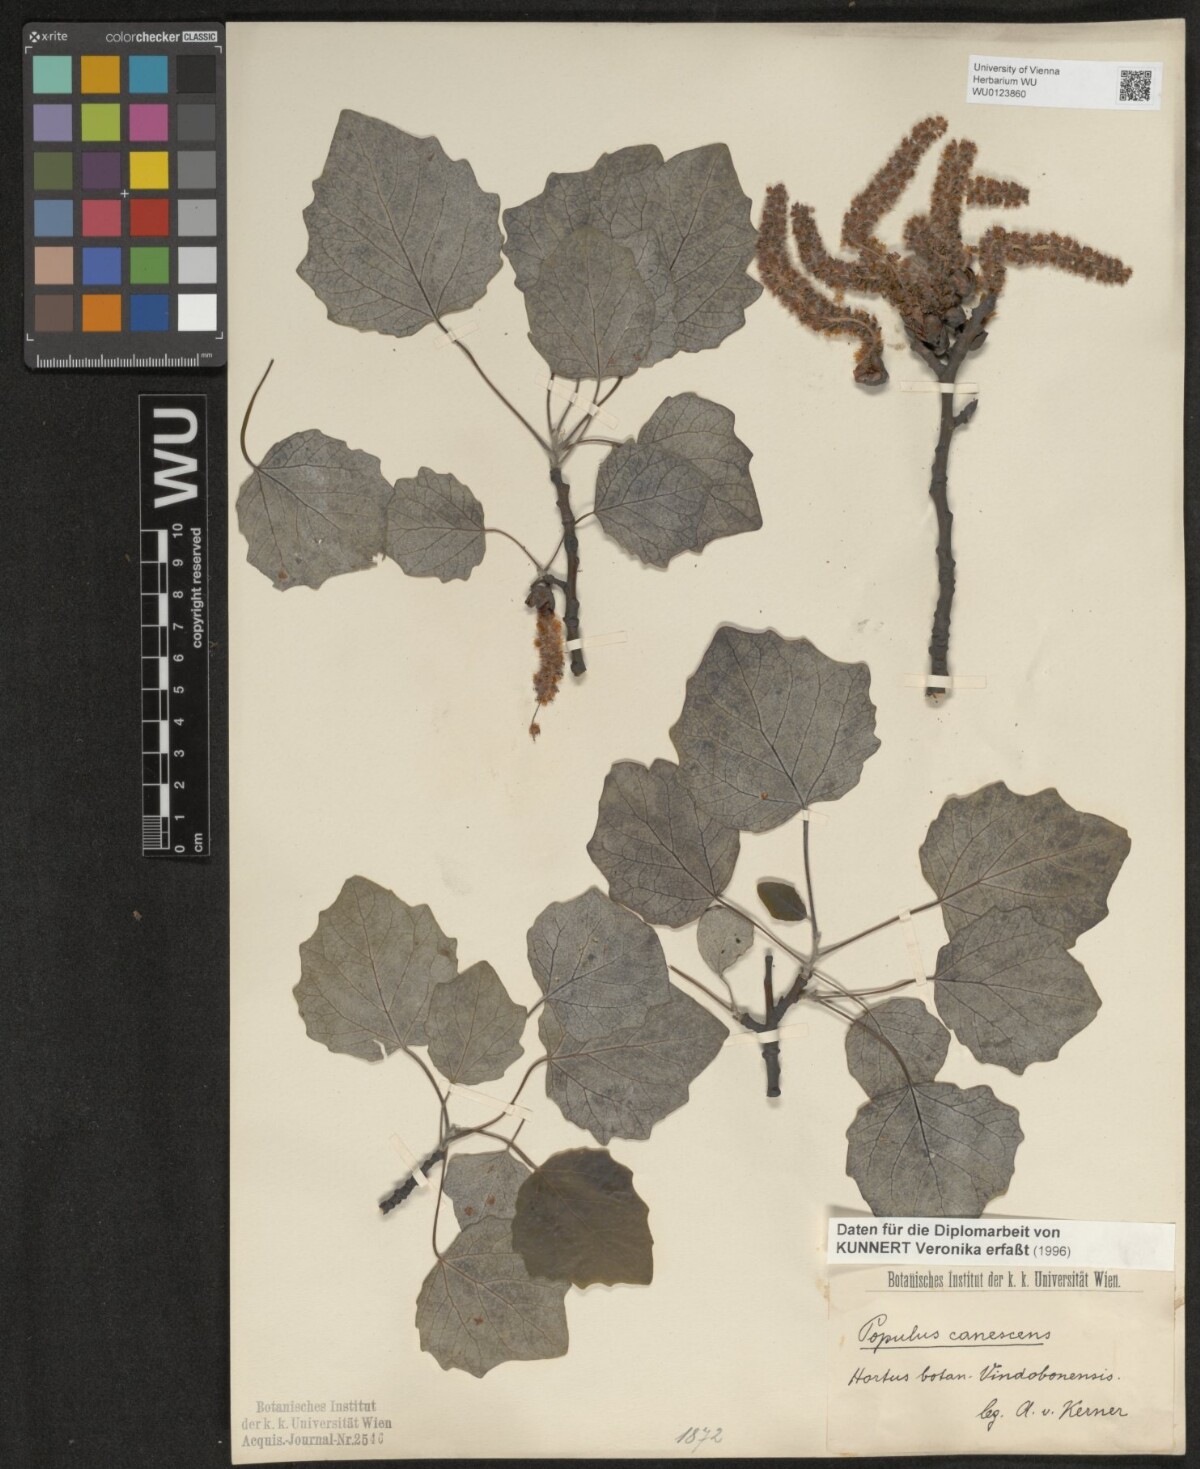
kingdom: Plantae
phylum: Tracheophyta
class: Magnoliopsida
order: Malpighiales
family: Salicaceae
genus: Populus
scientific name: Populus canescens
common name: Gray poplar
